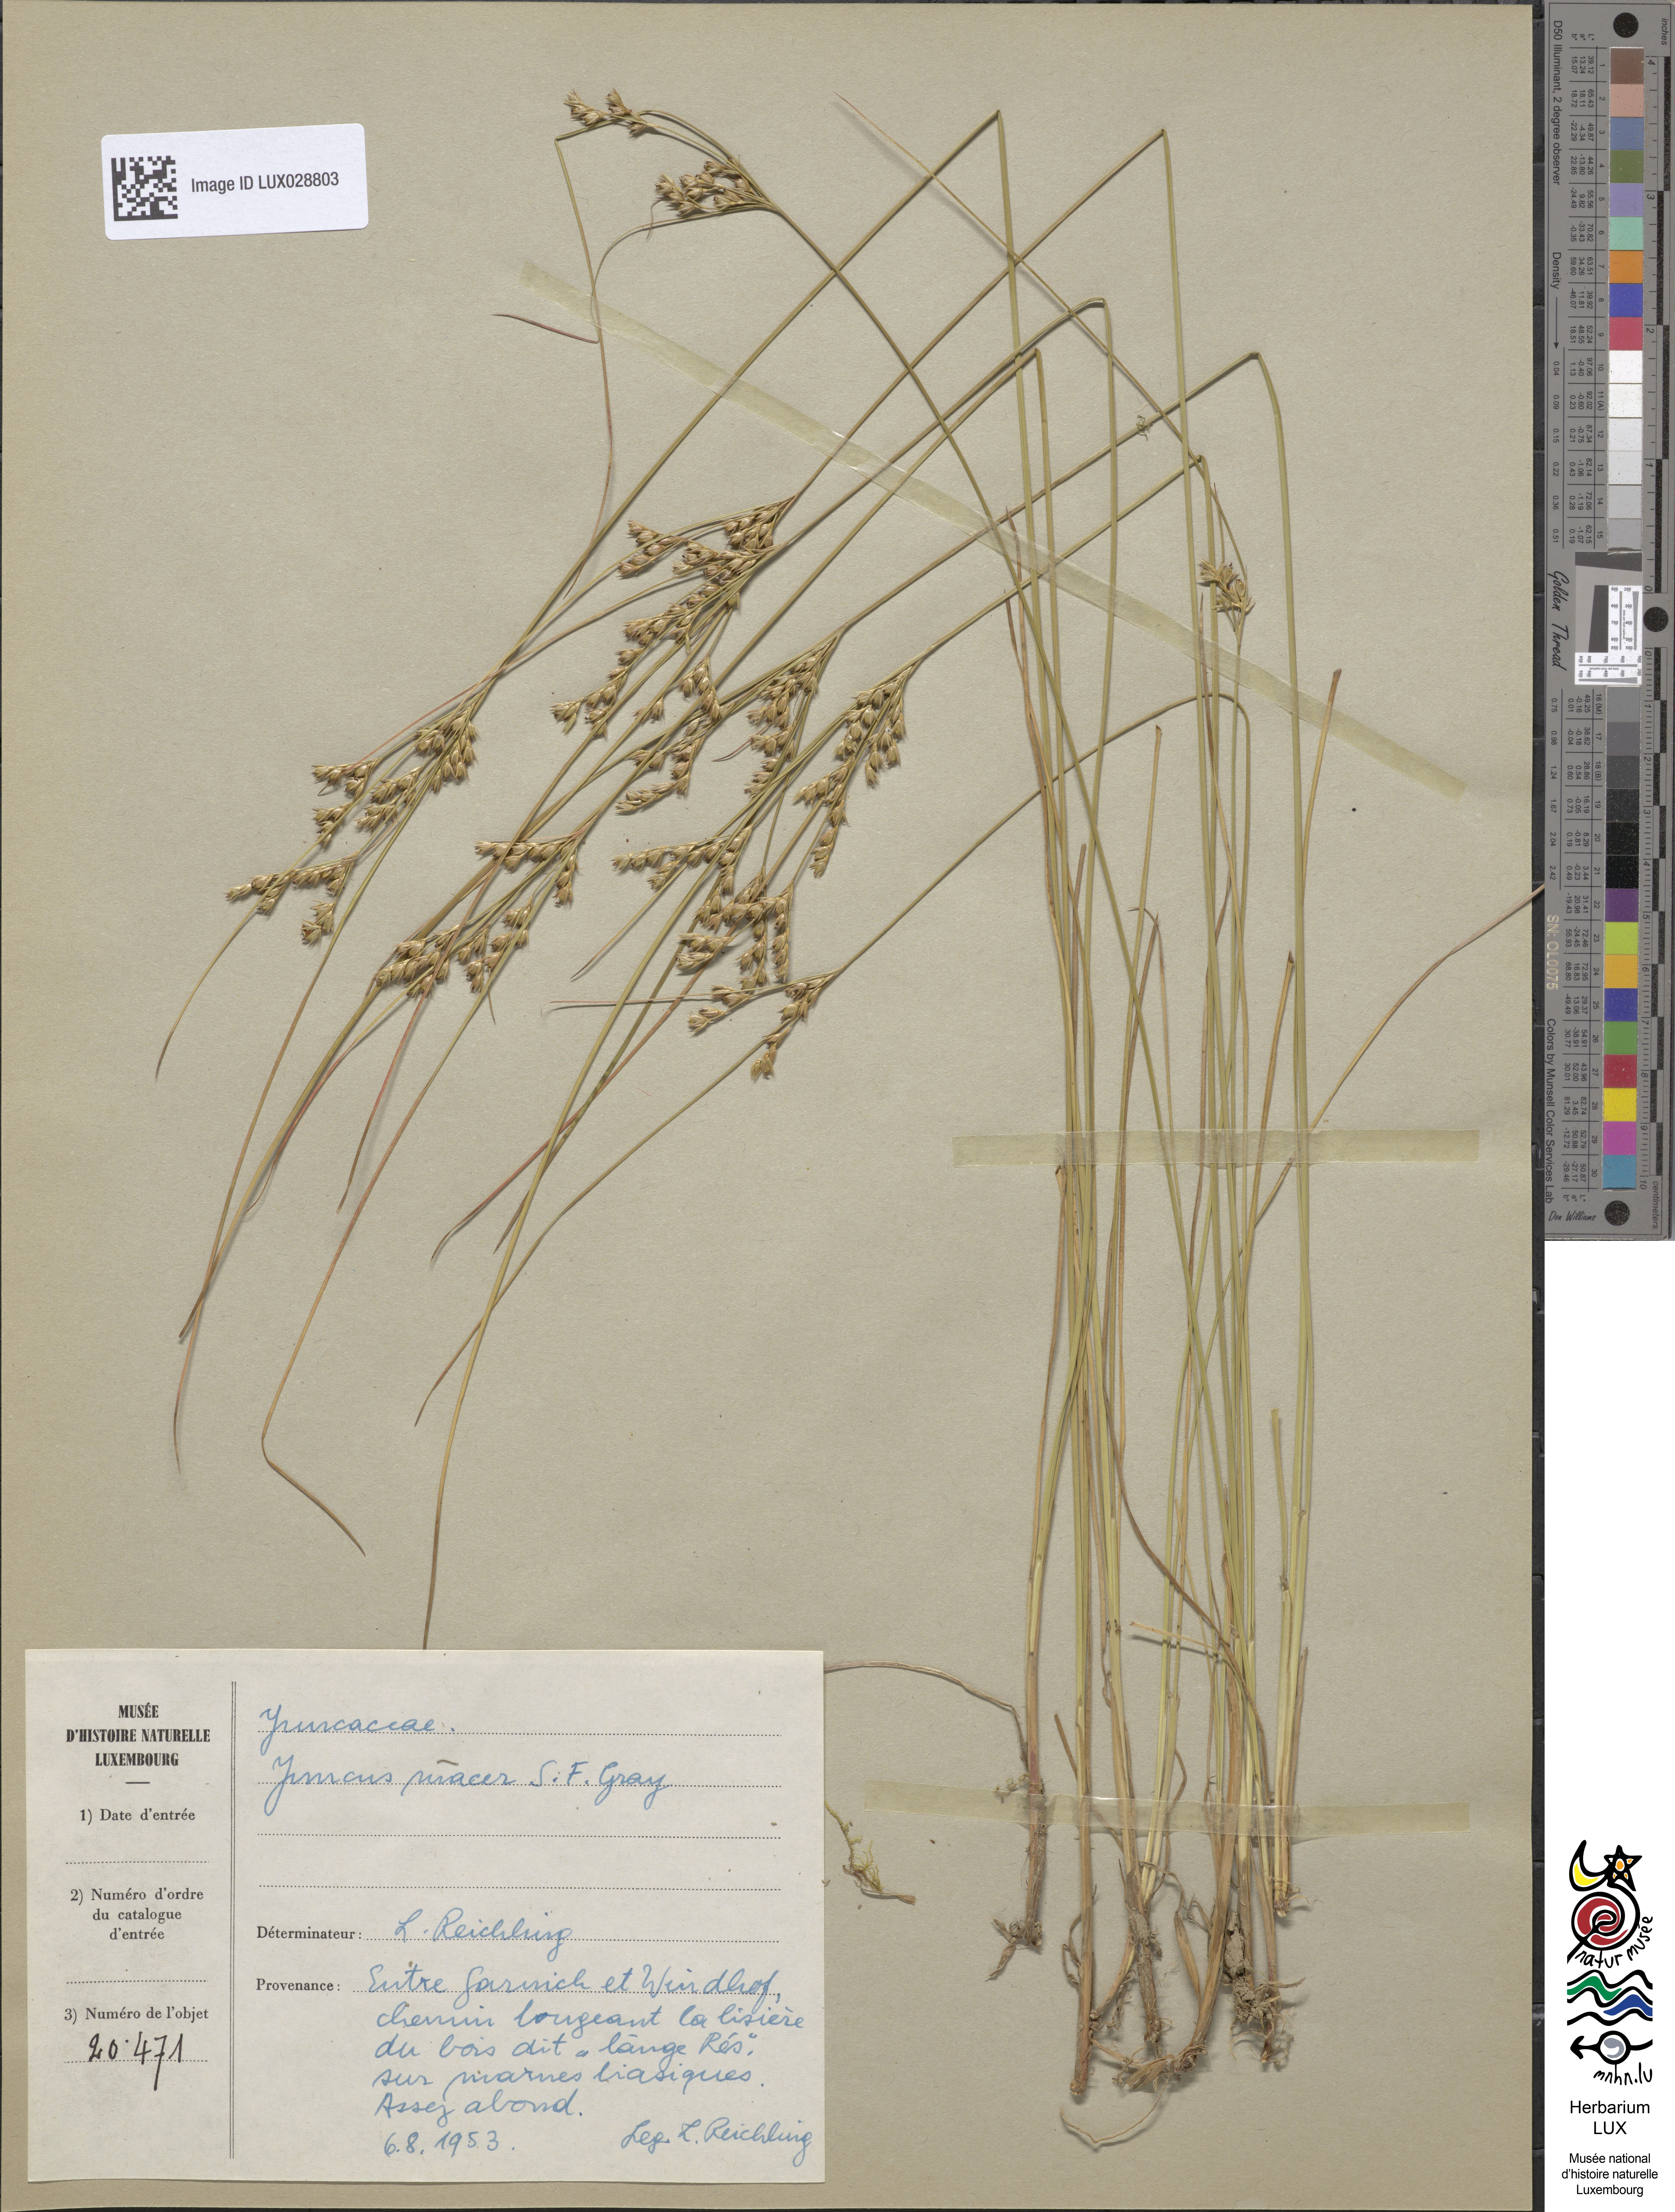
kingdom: Plantae
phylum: Tracheophyta
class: Liliopsida
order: Poales
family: Juncaceae
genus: Juncus
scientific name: Juncus tenuis
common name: Slender rush
